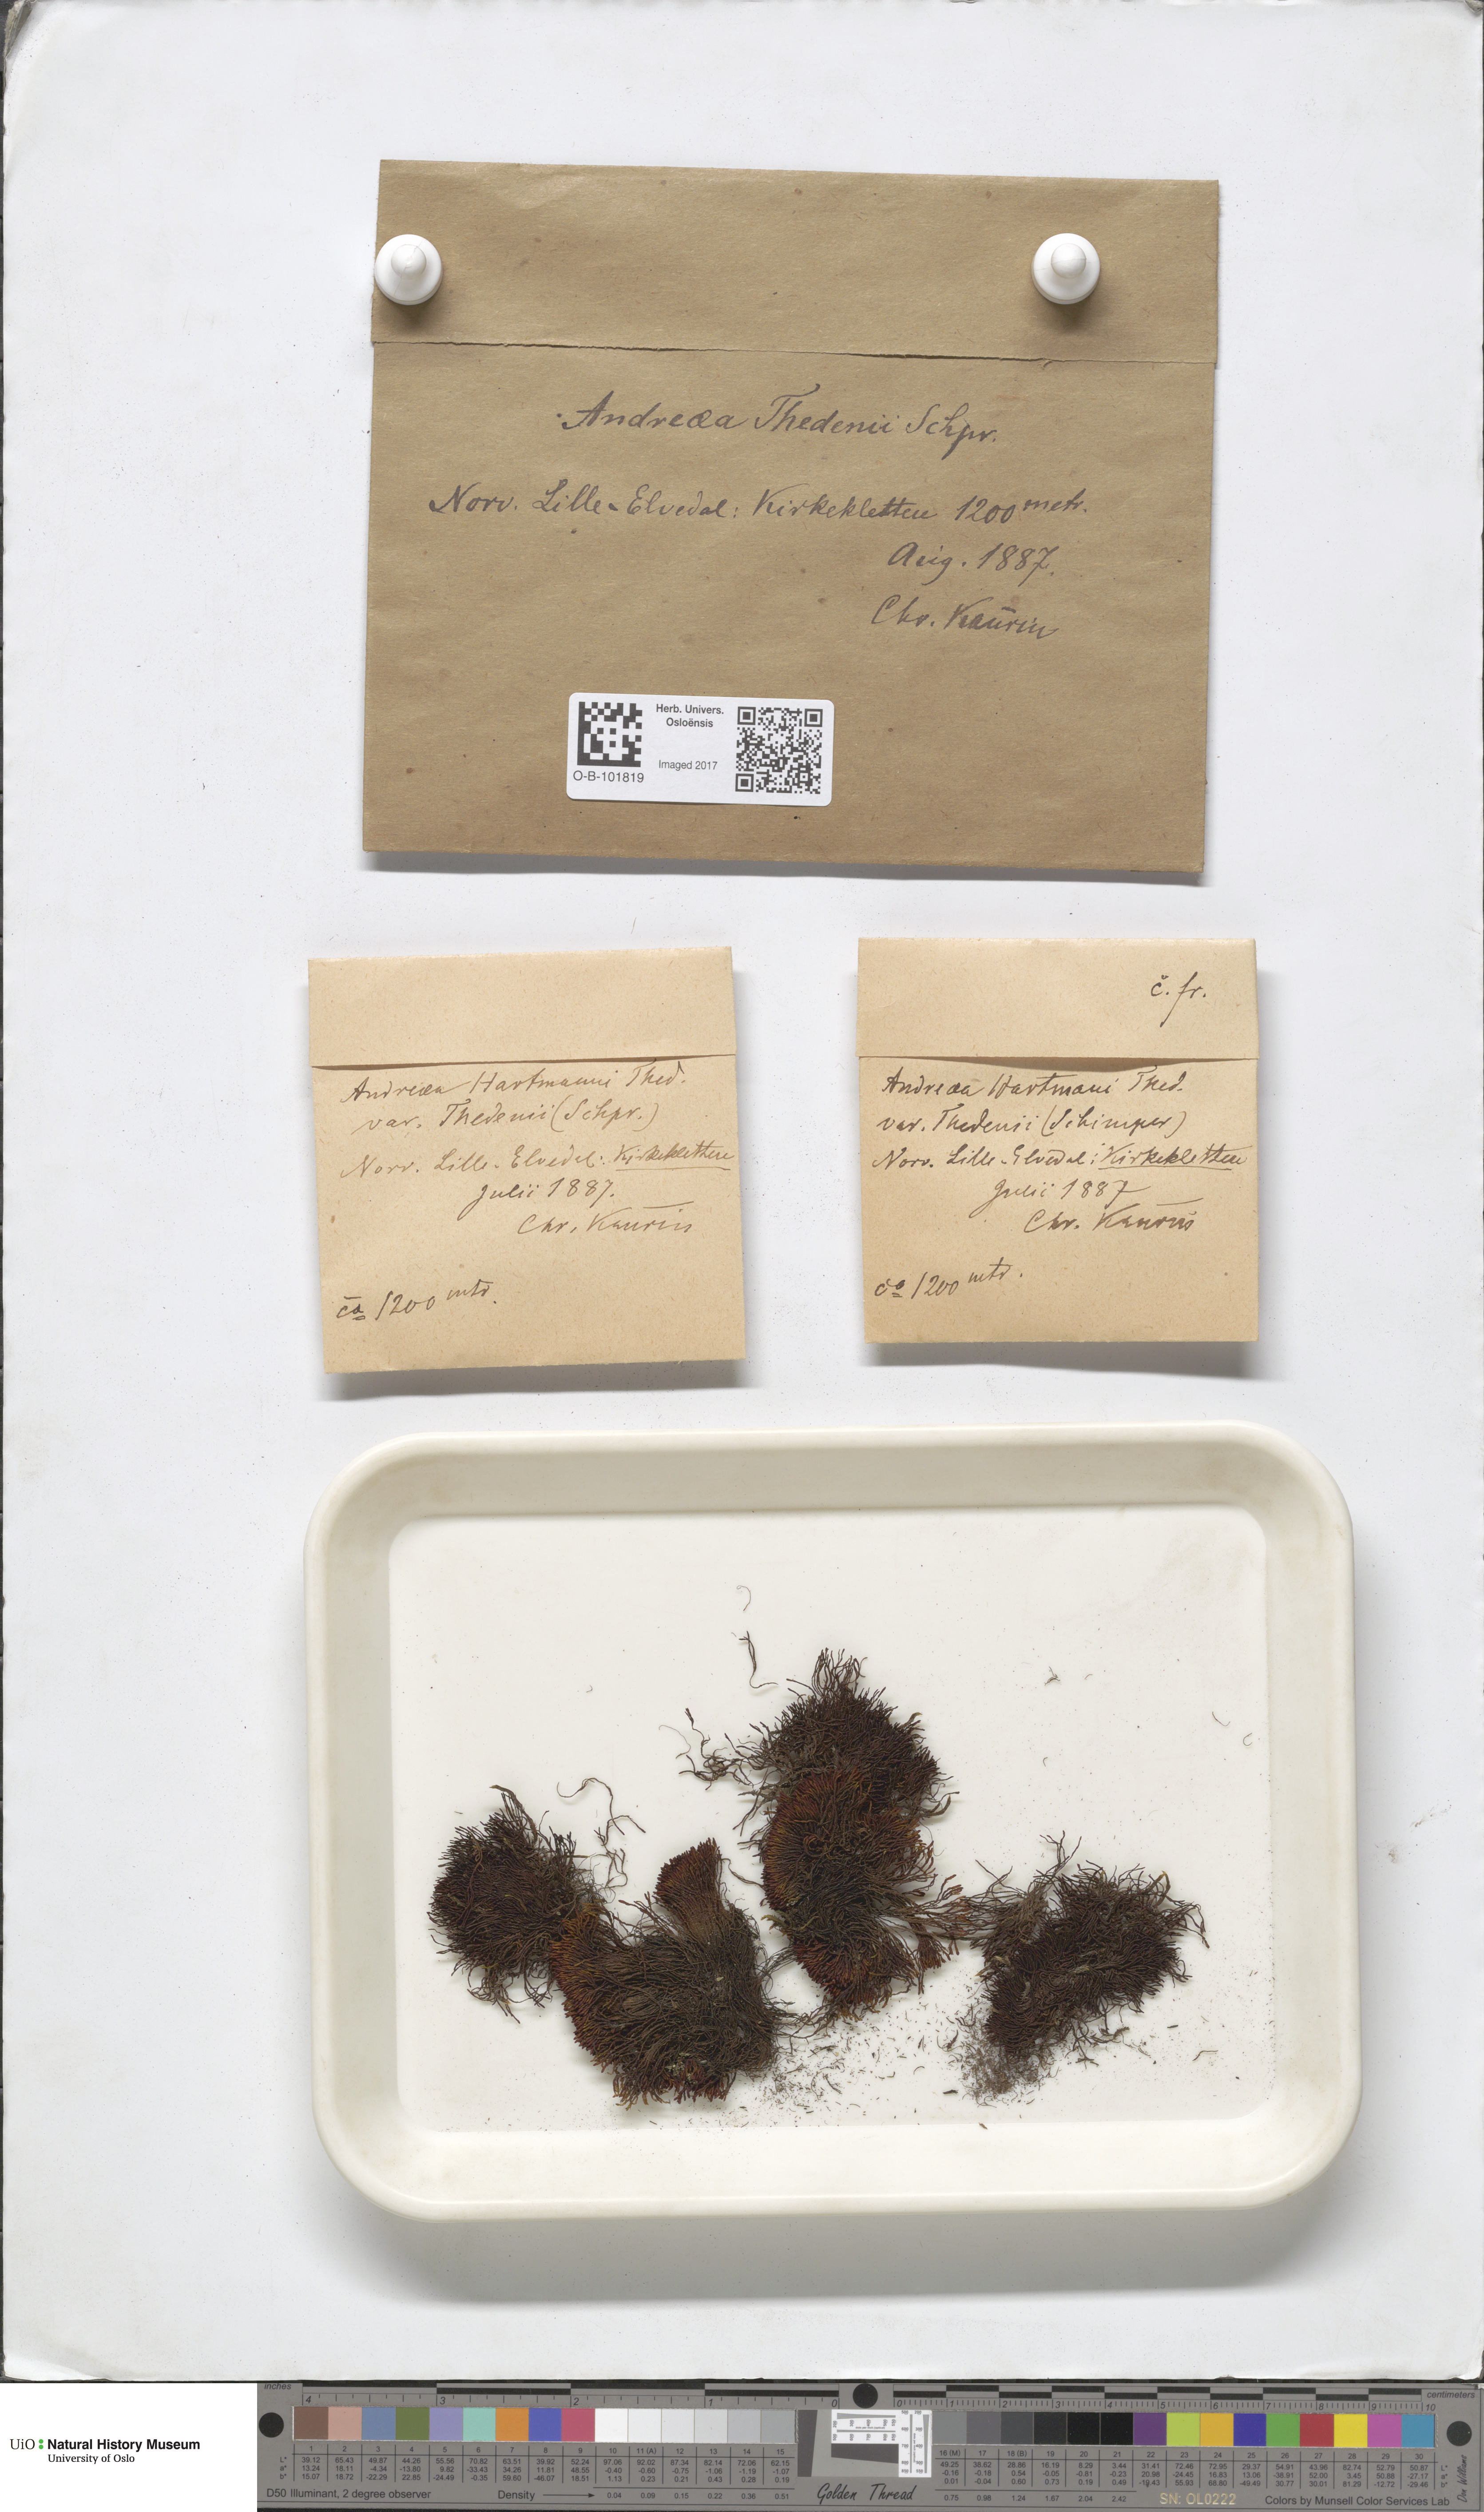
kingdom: Plantae
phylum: Bryophyta
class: Andreaeopsida
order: Andreaeales
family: Andreaeaceae
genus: Andreaea
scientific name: Andreaea hookeri
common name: Alpine rock-moss
